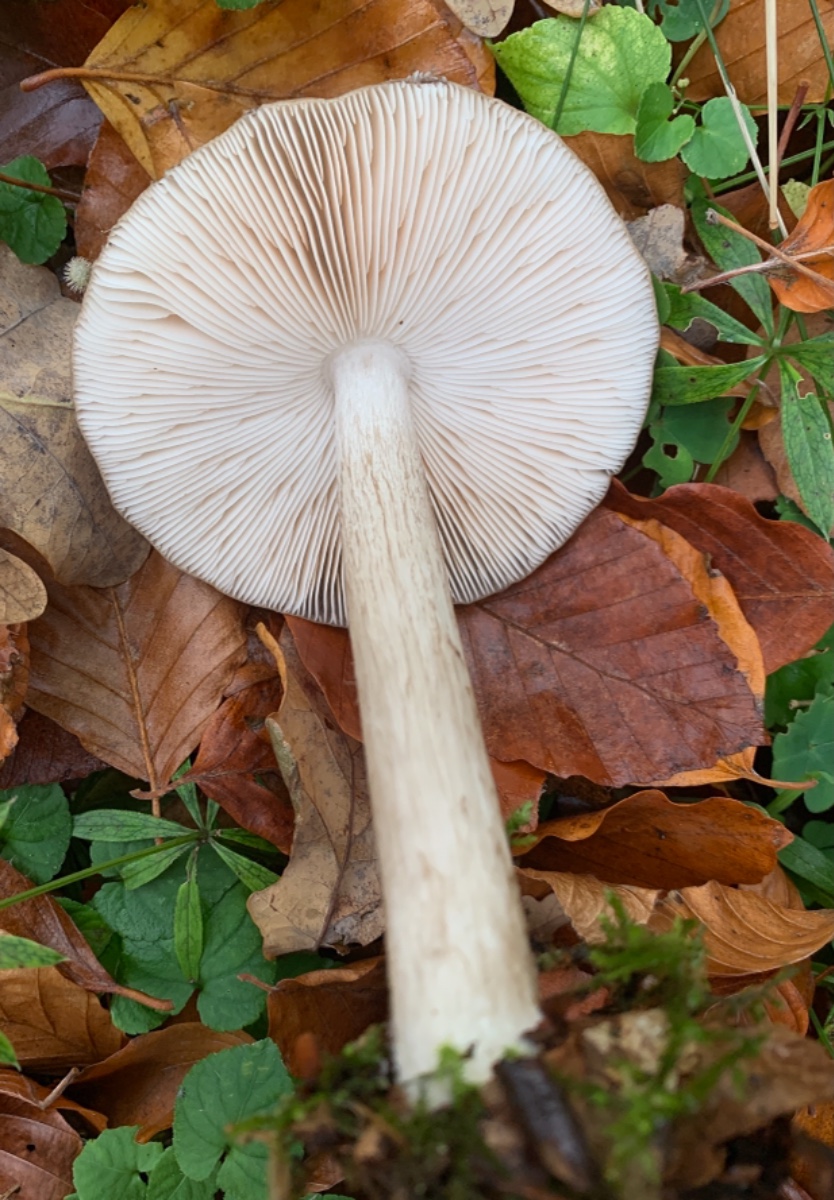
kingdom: Fungi
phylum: Basidiomycota
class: Agaricomycetes
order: Agaricales
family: Pluteaceae
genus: Pluteus
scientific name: Pluteus cervinus
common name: sodfarvet skærmhat
